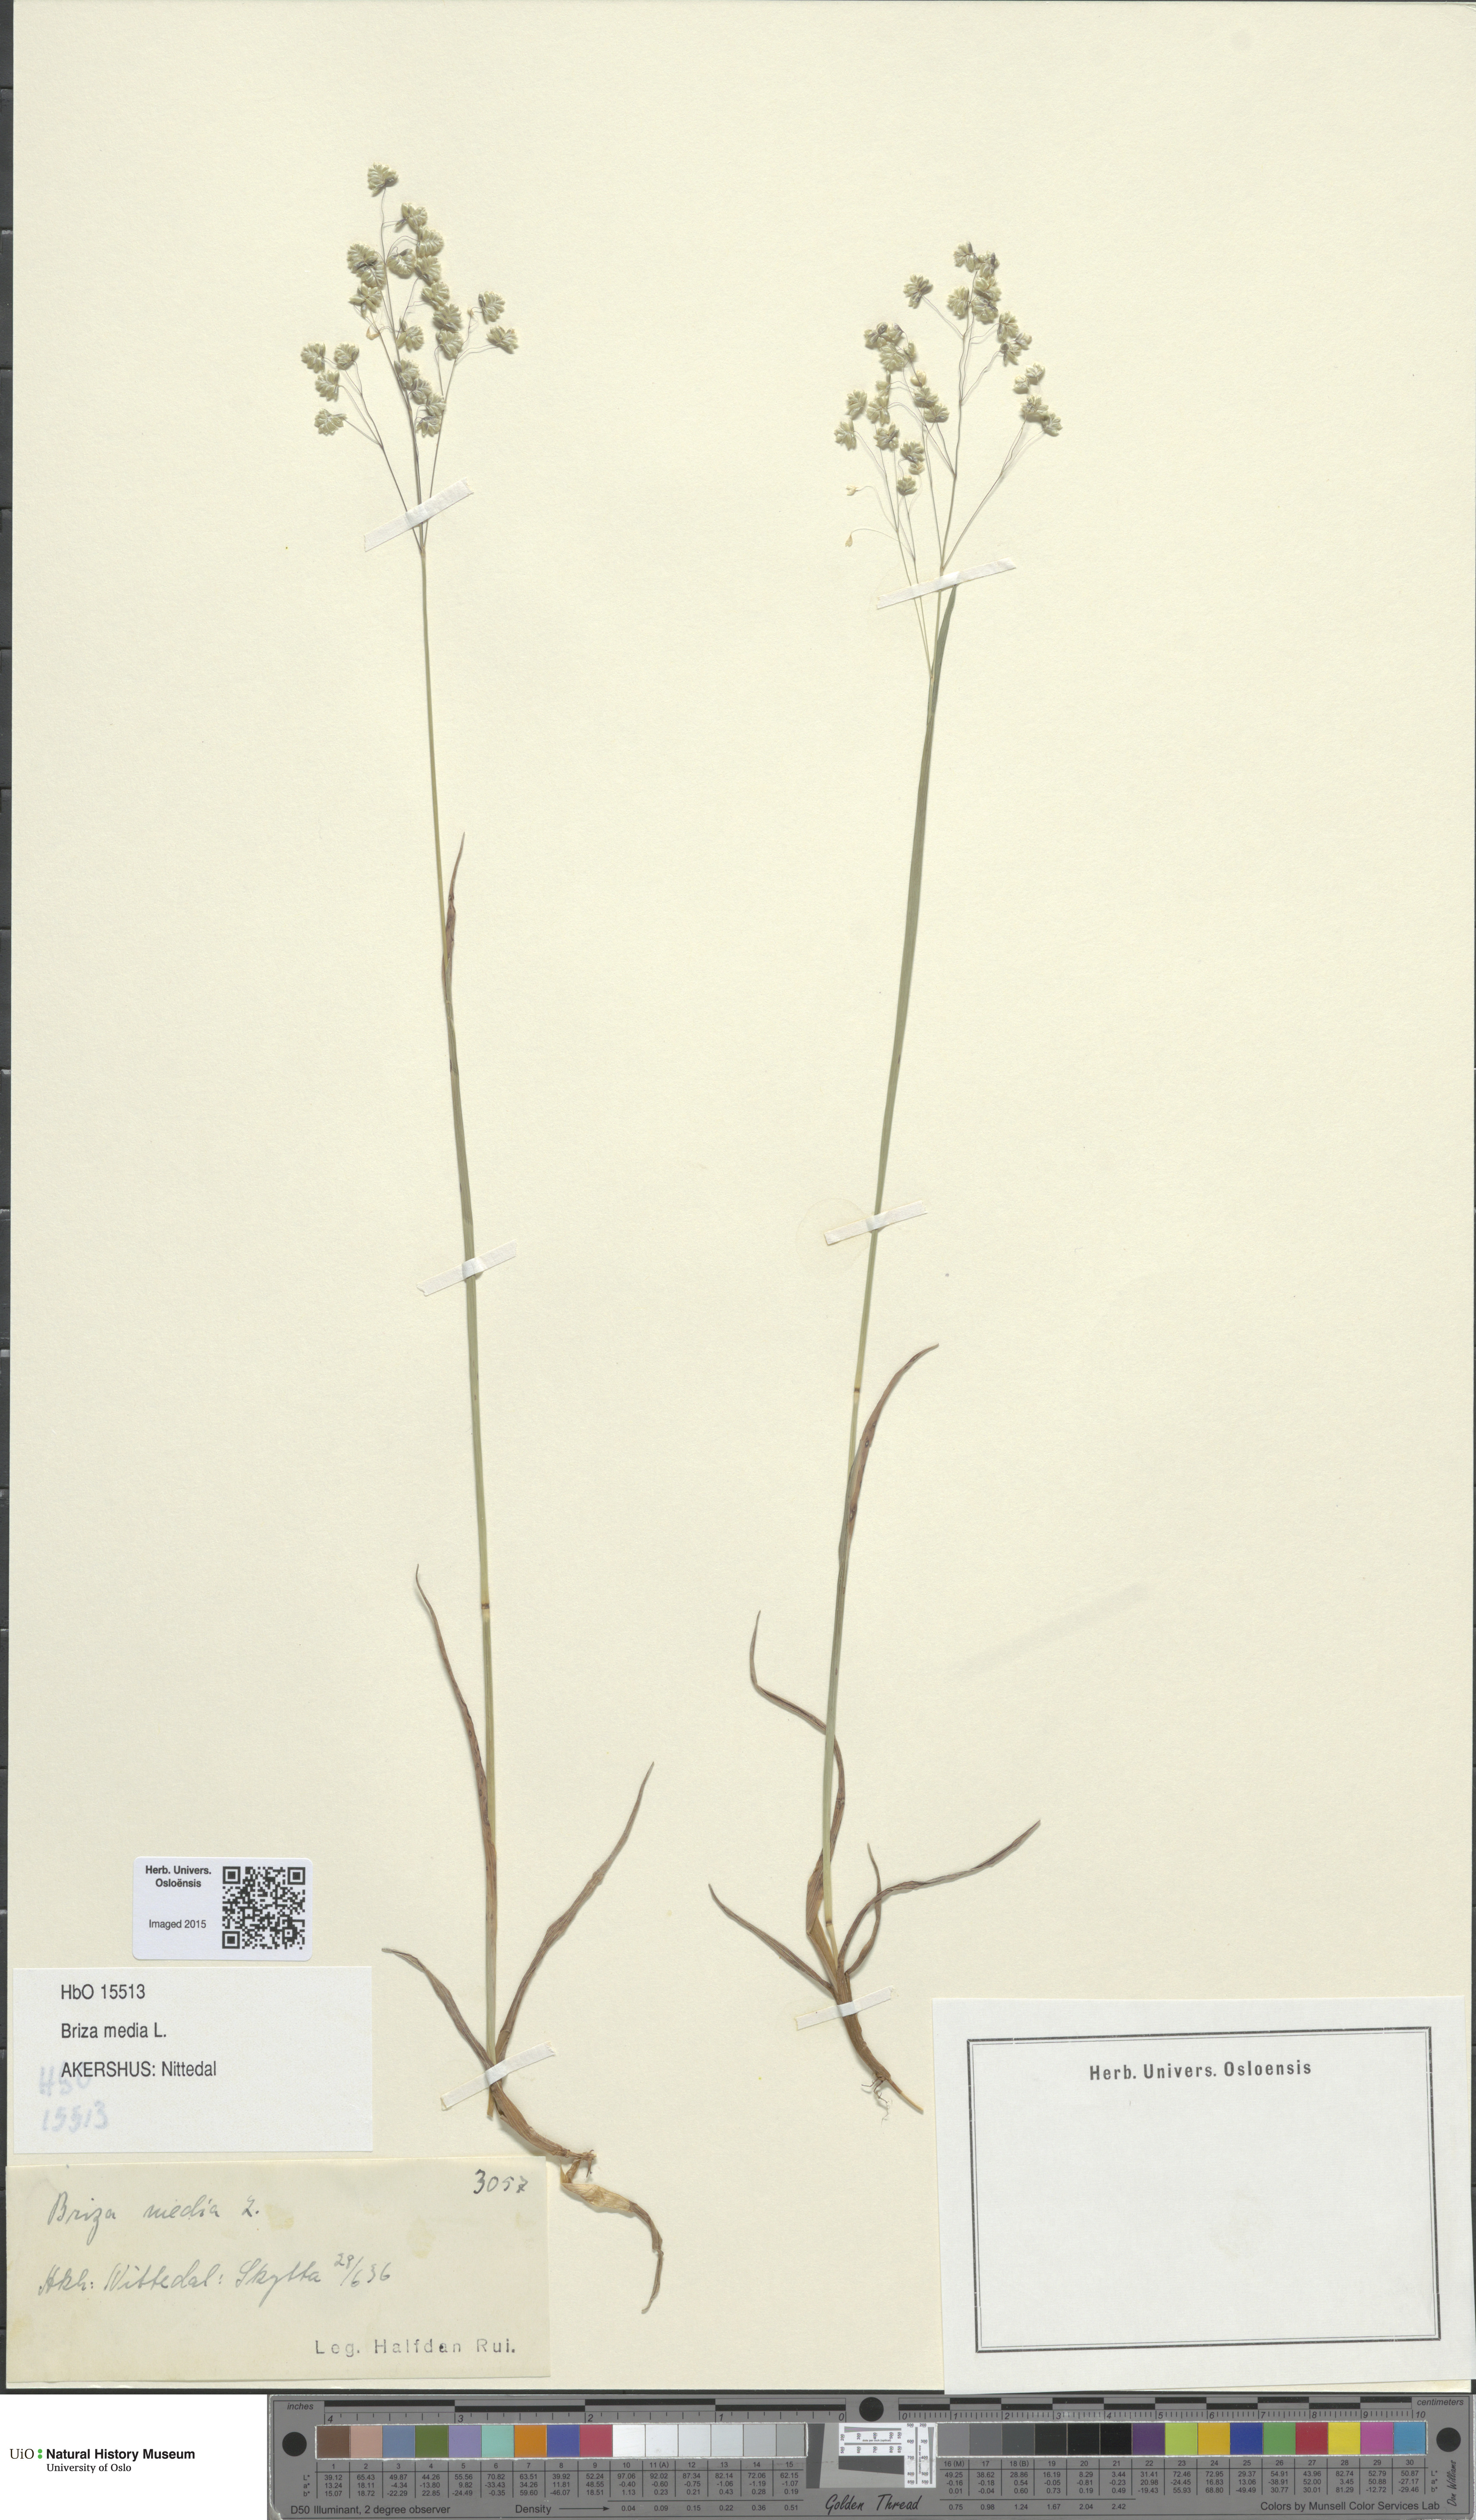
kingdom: Plantae
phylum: Tracheophyta
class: Liliopsida
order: Poales
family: Poaceae
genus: Briza
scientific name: Briza media
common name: Quaking grass
